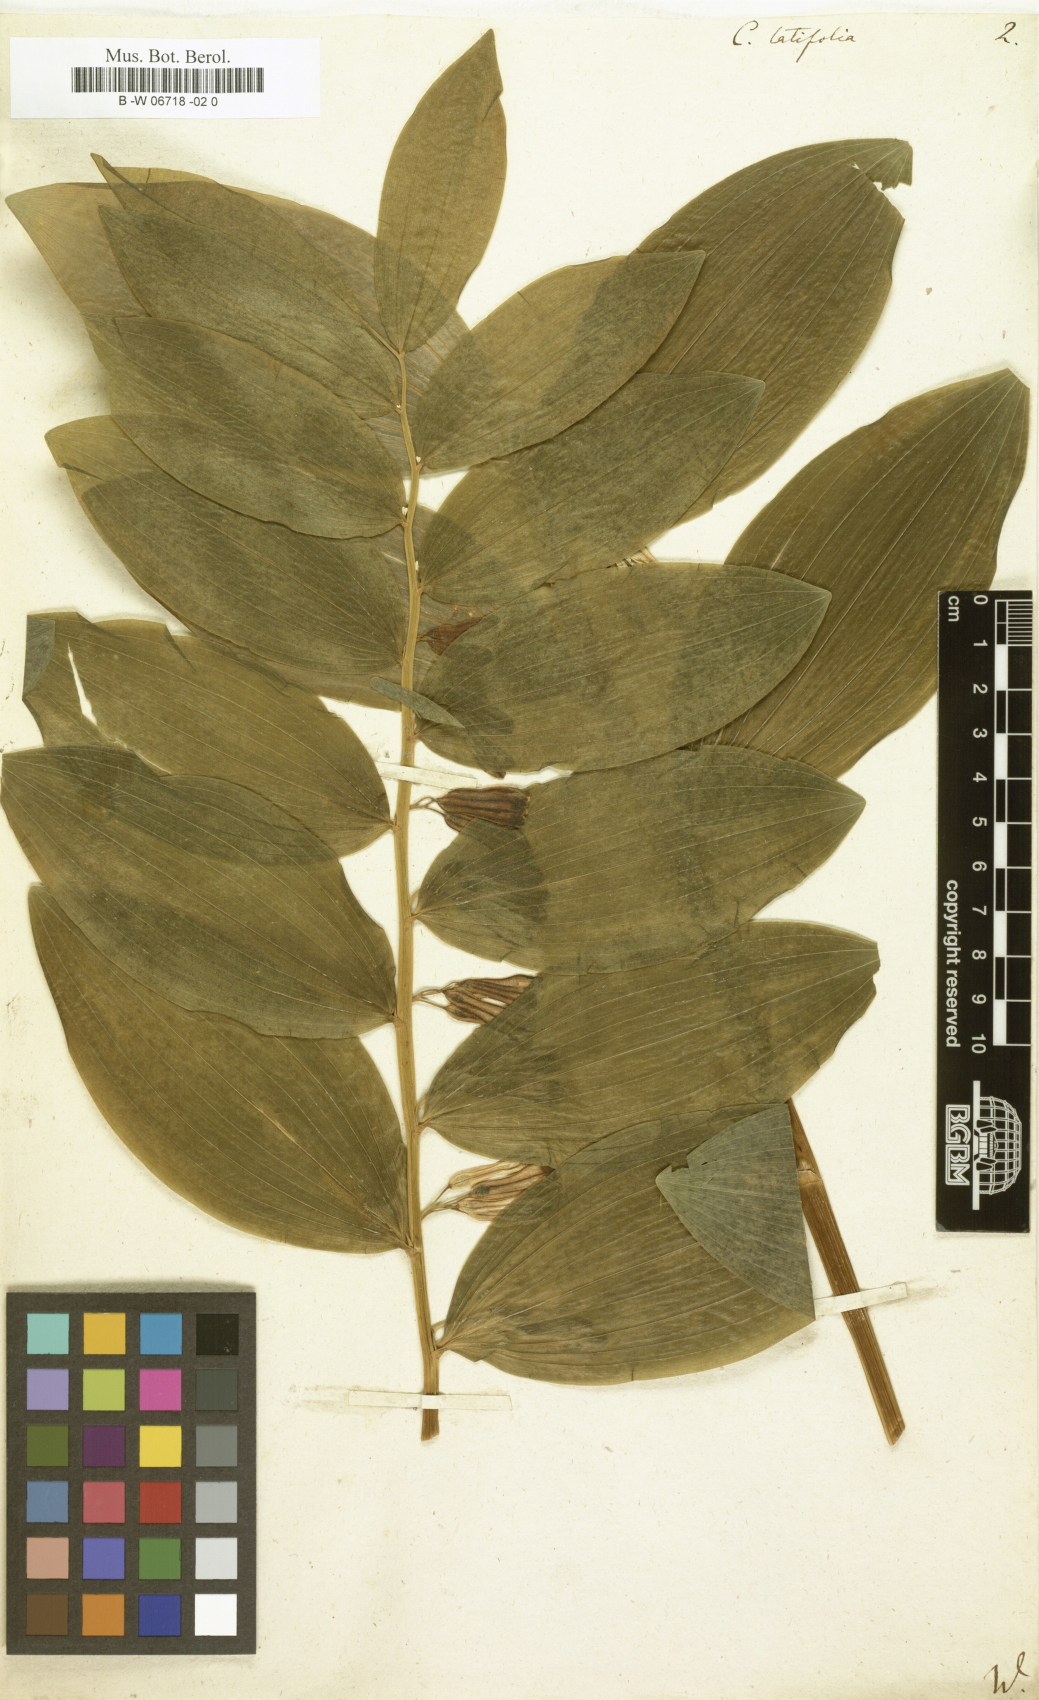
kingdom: Plantae
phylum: Tracheophyta
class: Liliopsida
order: Asparagales
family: Asparagaceae
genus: Convallaria
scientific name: Convallaria latifolia
